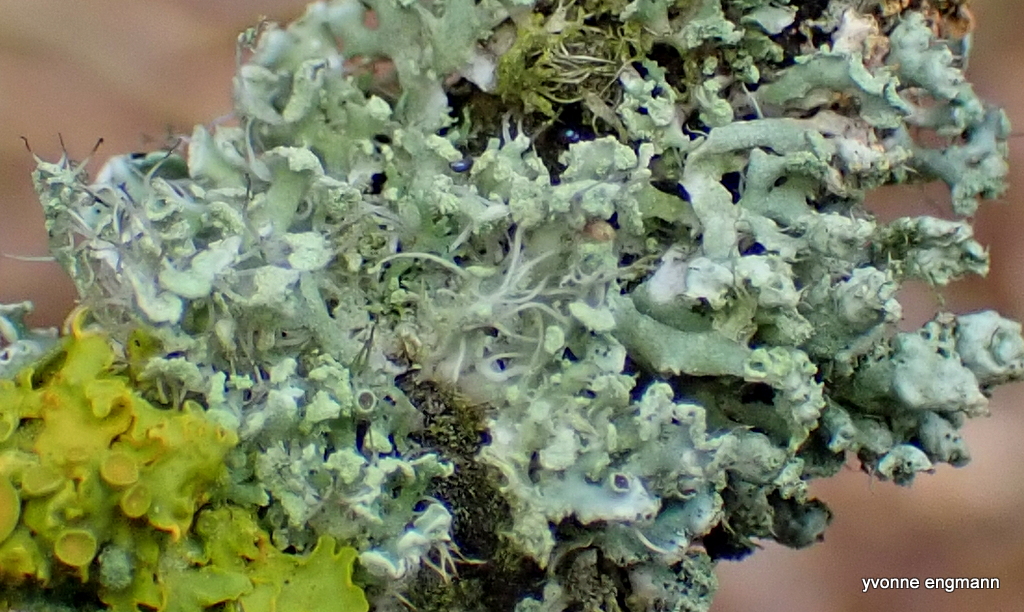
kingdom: Fungi
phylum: Ascomycota
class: Lecanoromycetes
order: Caliciales
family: Physciaceae
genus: Physcia
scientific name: Physcia tenella
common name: spæd rosetlav
